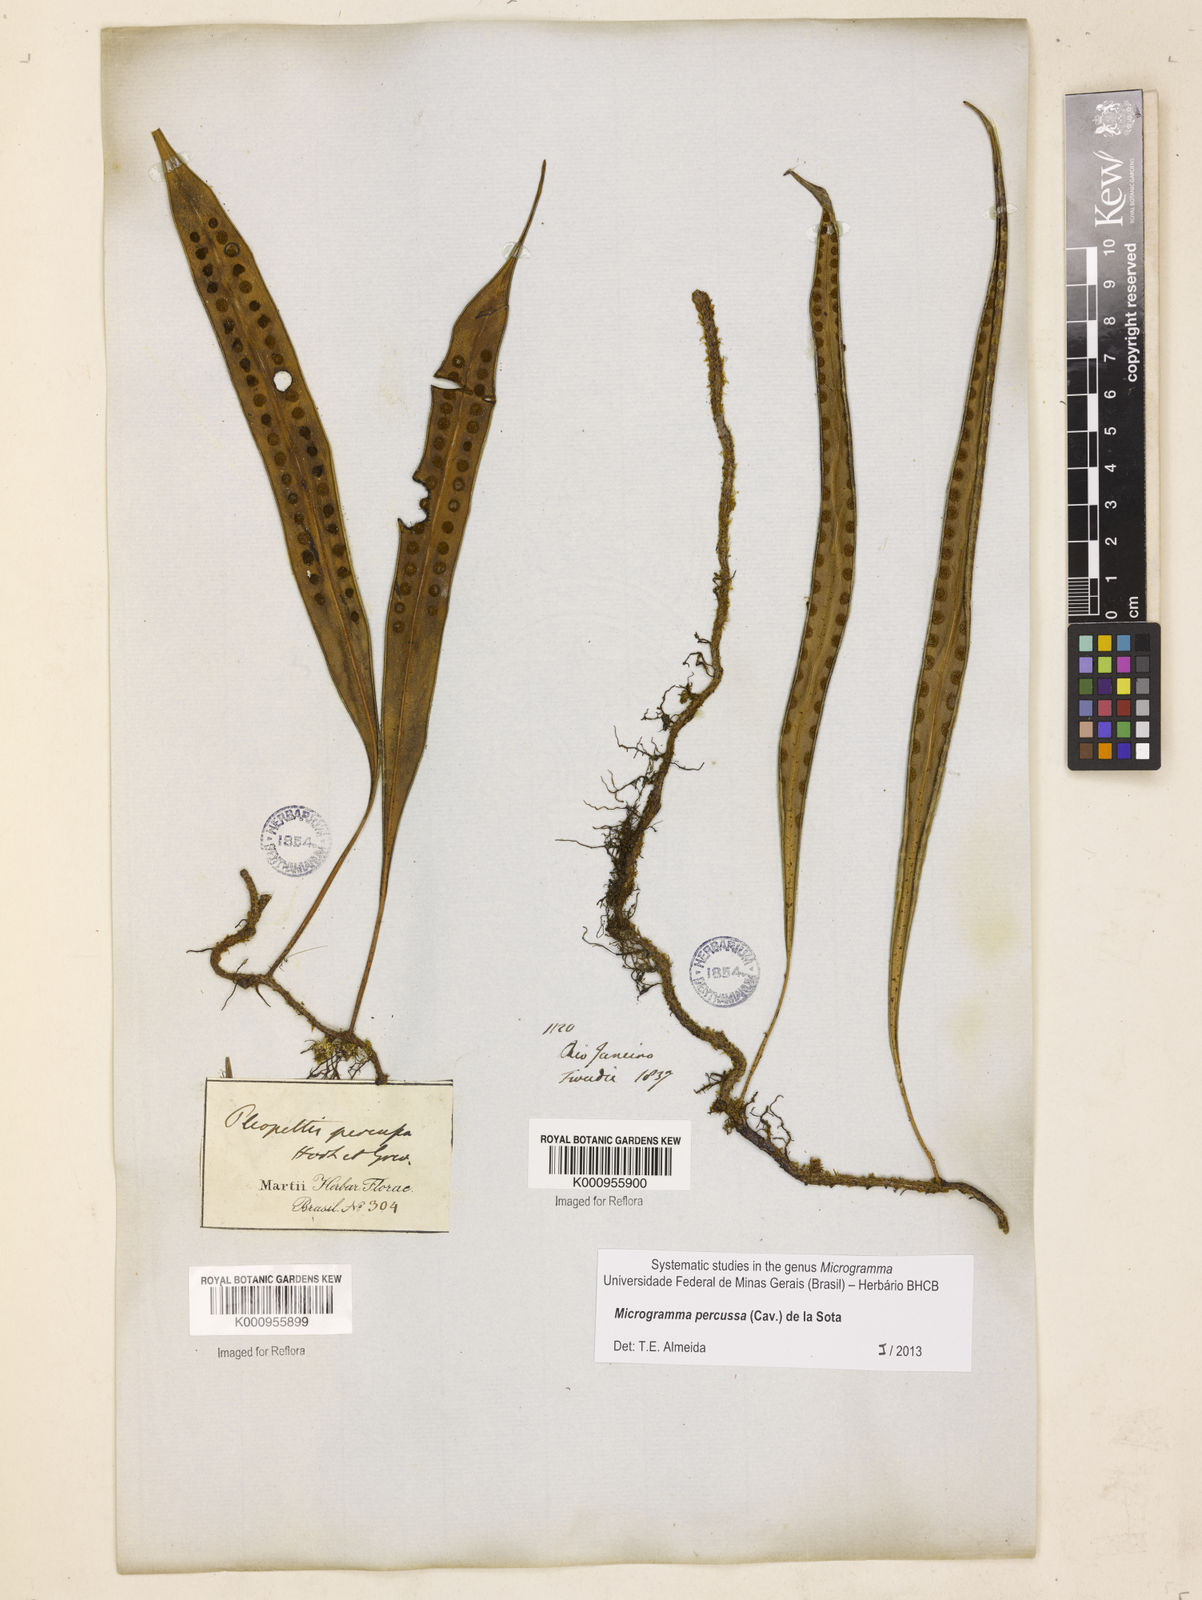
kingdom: Plantae
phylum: Tracheophyta
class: Polypodiopsida
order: Polypodiales
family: Polypodiaceae
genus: Microgramma
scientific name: Microgramma percussa
